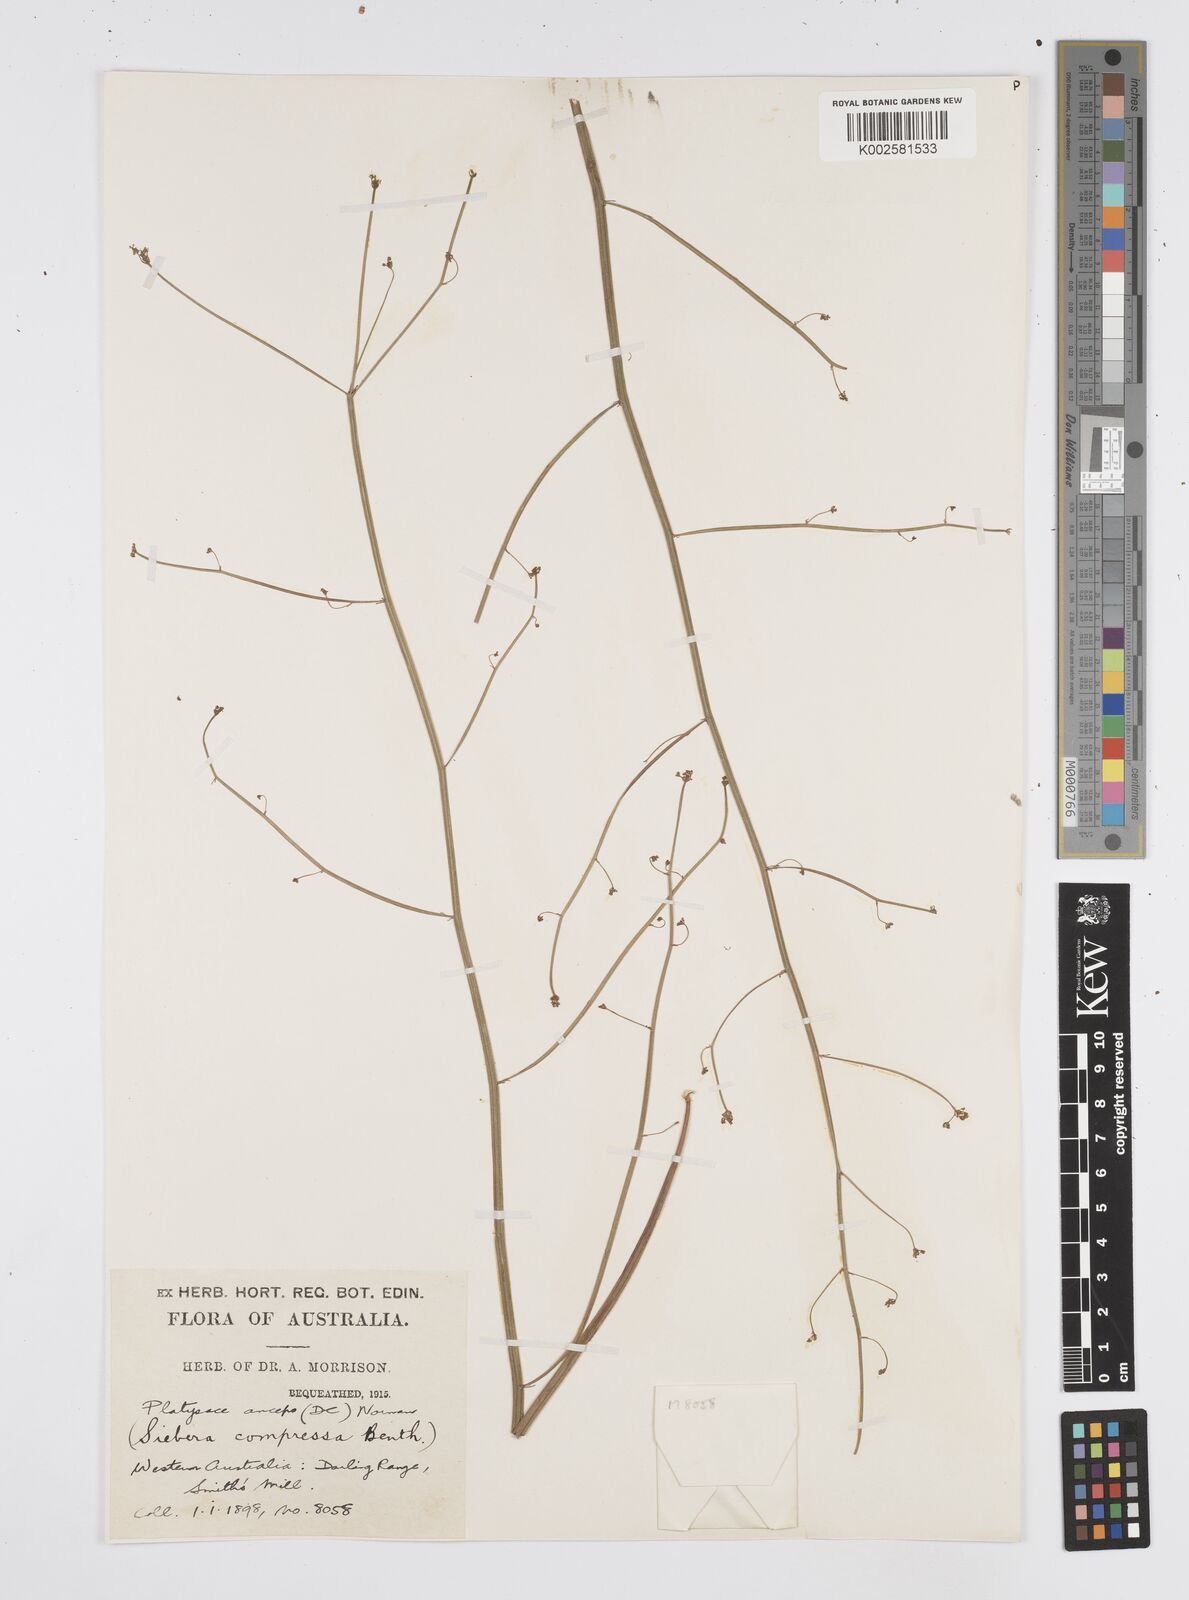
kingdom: Plantae
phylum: Tracheophyta
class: Magnoliopsida
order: Apiales
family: Apiaceae
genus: Centella
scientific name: Centella
